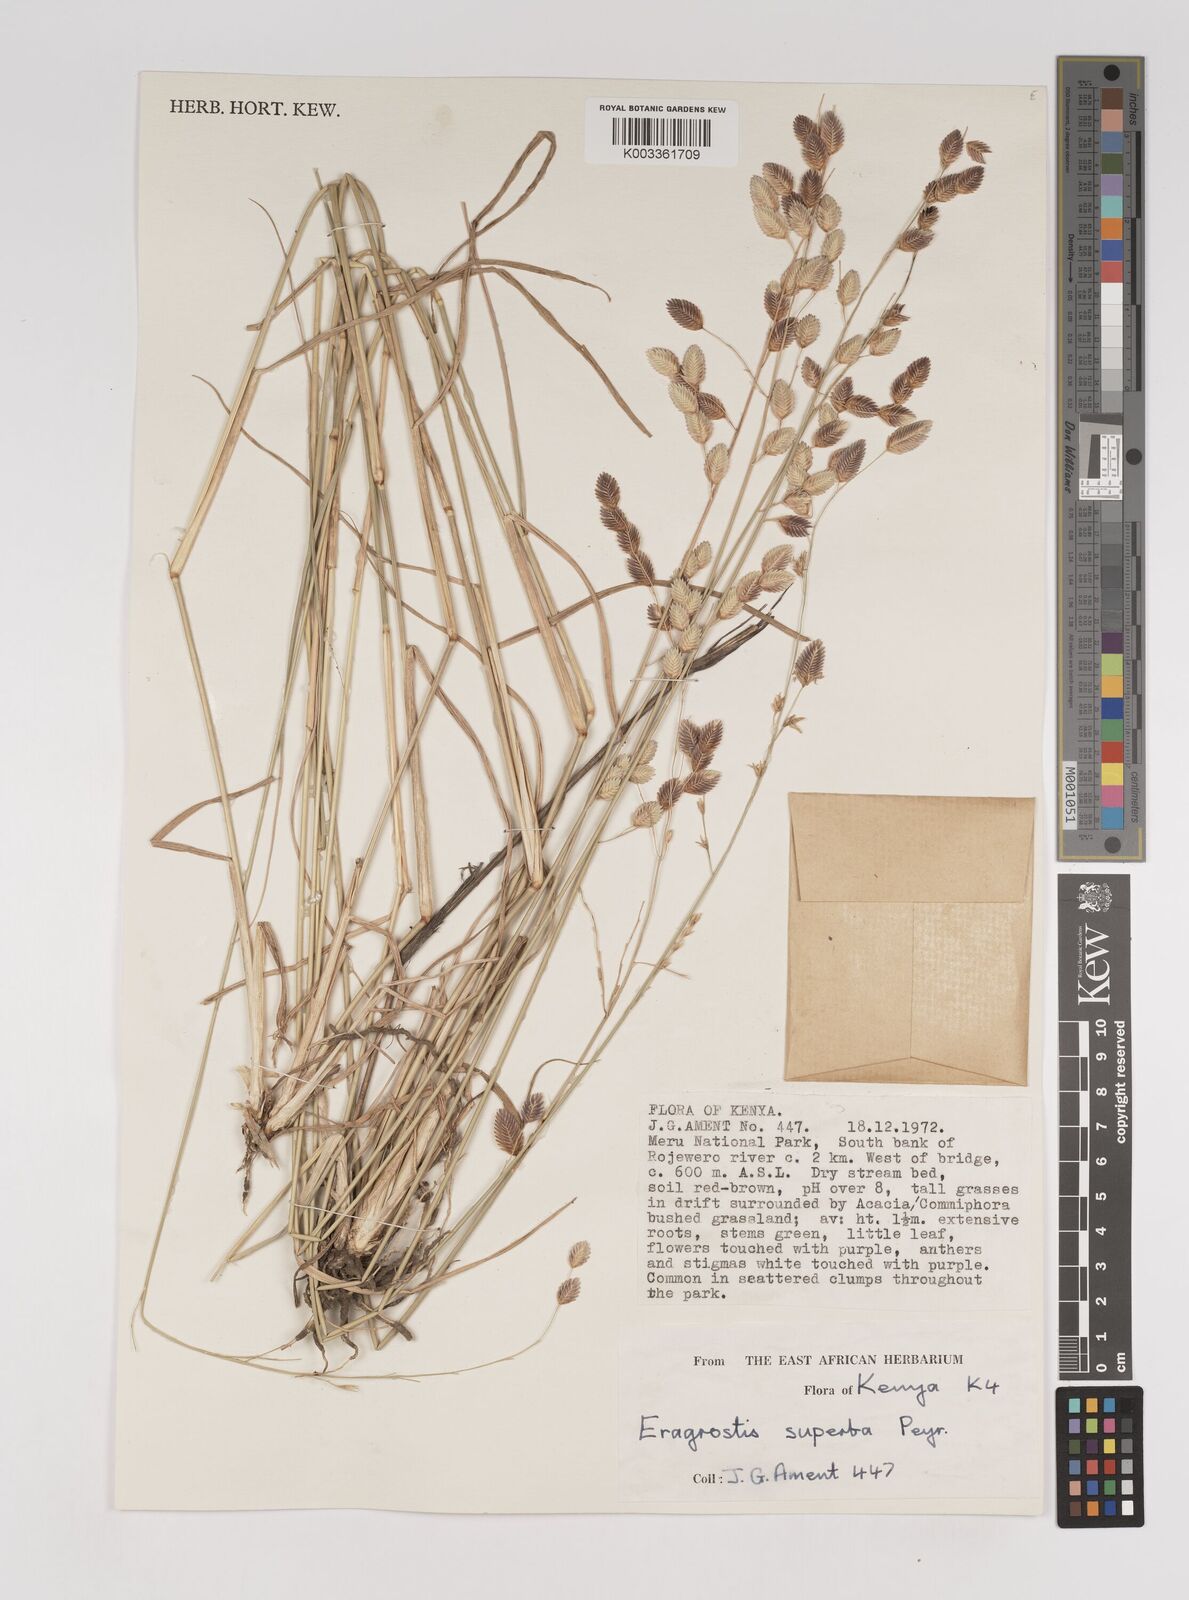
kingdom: Plantae
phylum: Tracheophyta
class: Liliopsida
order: Poales
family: Poaceae
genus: Eragrostis
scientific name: Eragrostis superba
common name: Wilman lovegrass
